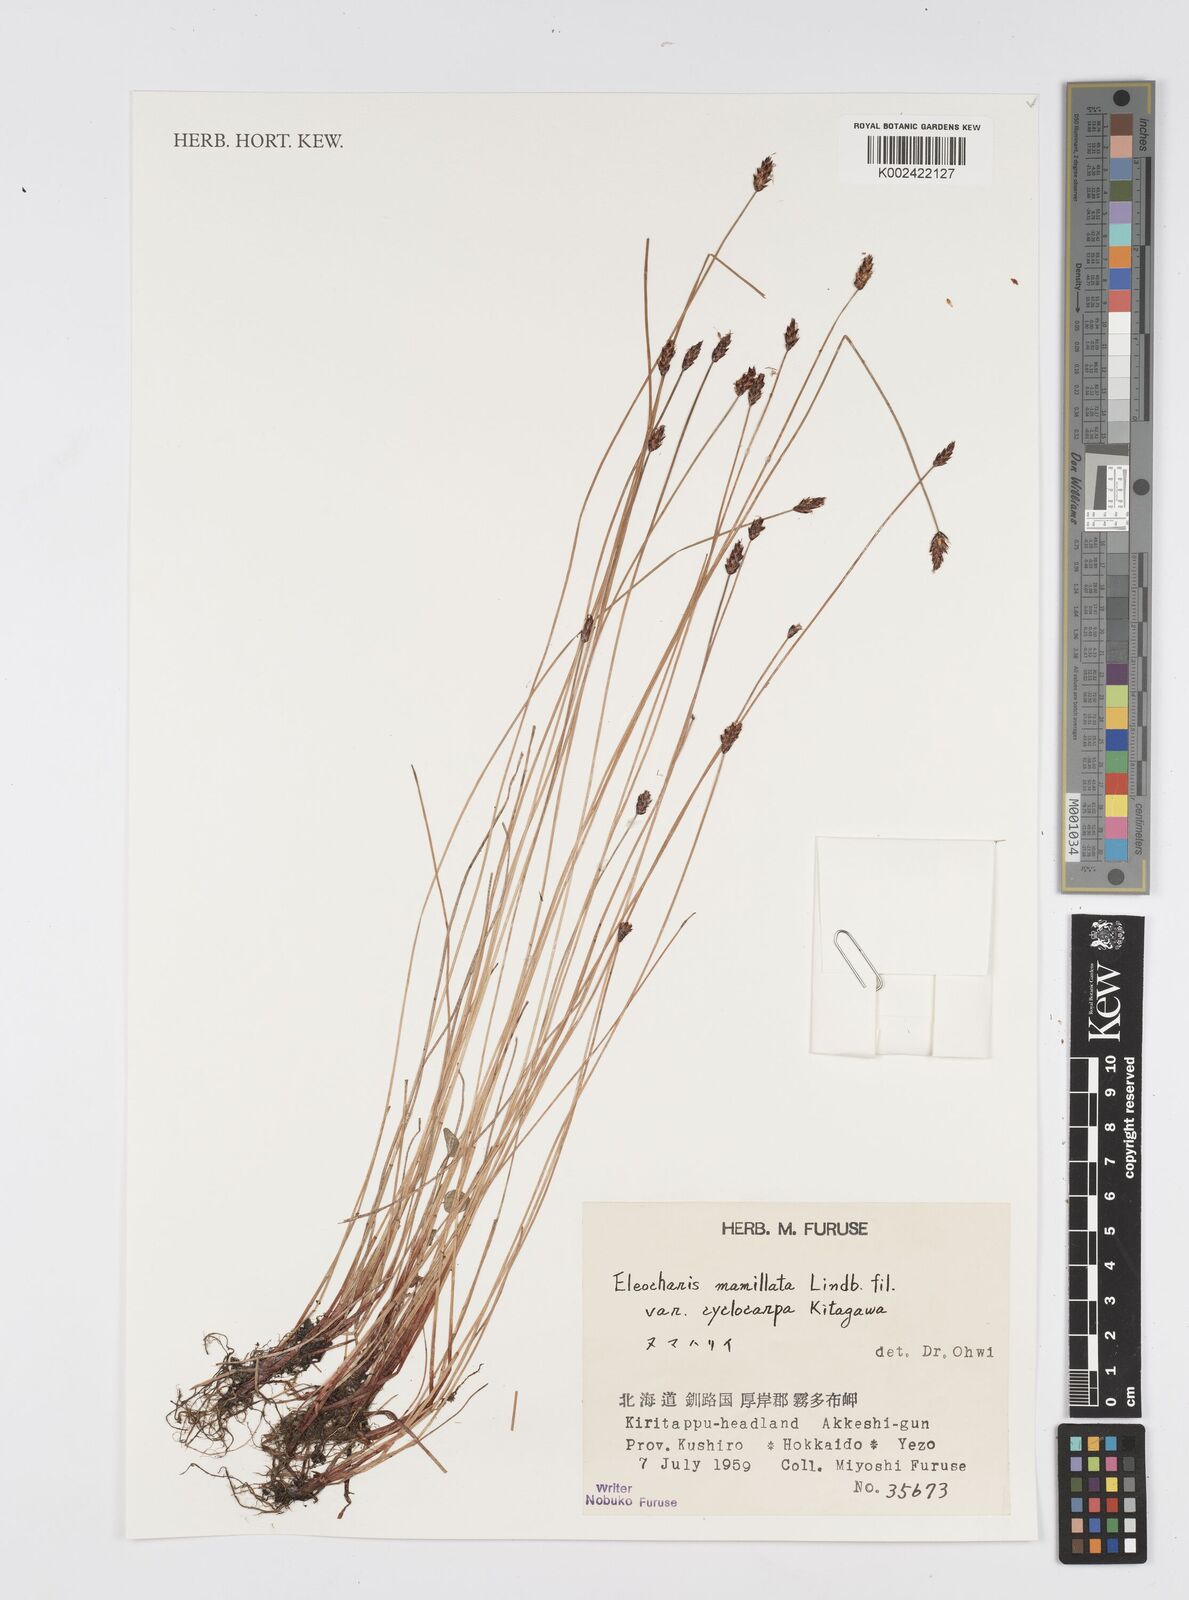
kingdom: Plantae
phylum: Tracheophyta
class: Liliopsida
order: Poales
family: Cyperaceae
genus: Eleocharis
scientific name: Eleocharis mamillata
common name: Northern spike-rush
